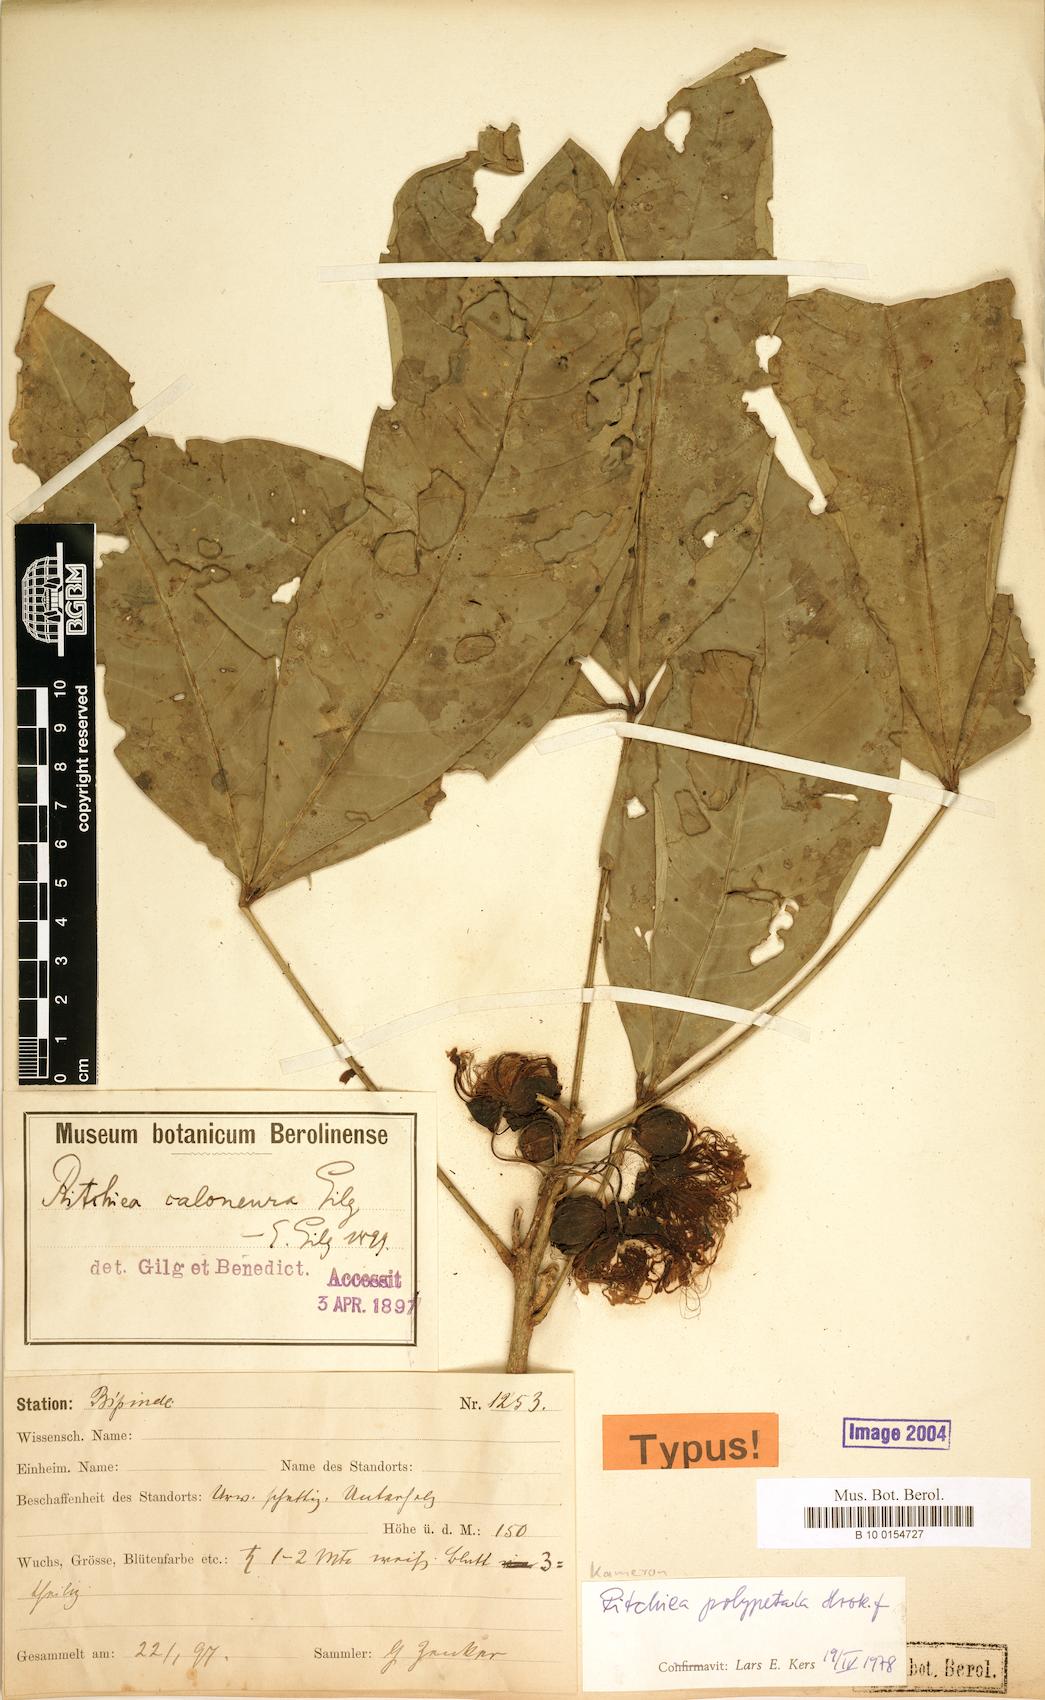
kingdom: Plantae
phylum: Tracheophyta
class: Magnoliopsida
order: Brassicales
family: Capparaceae
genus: Ritchiea
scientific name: Ritchiea erecta
